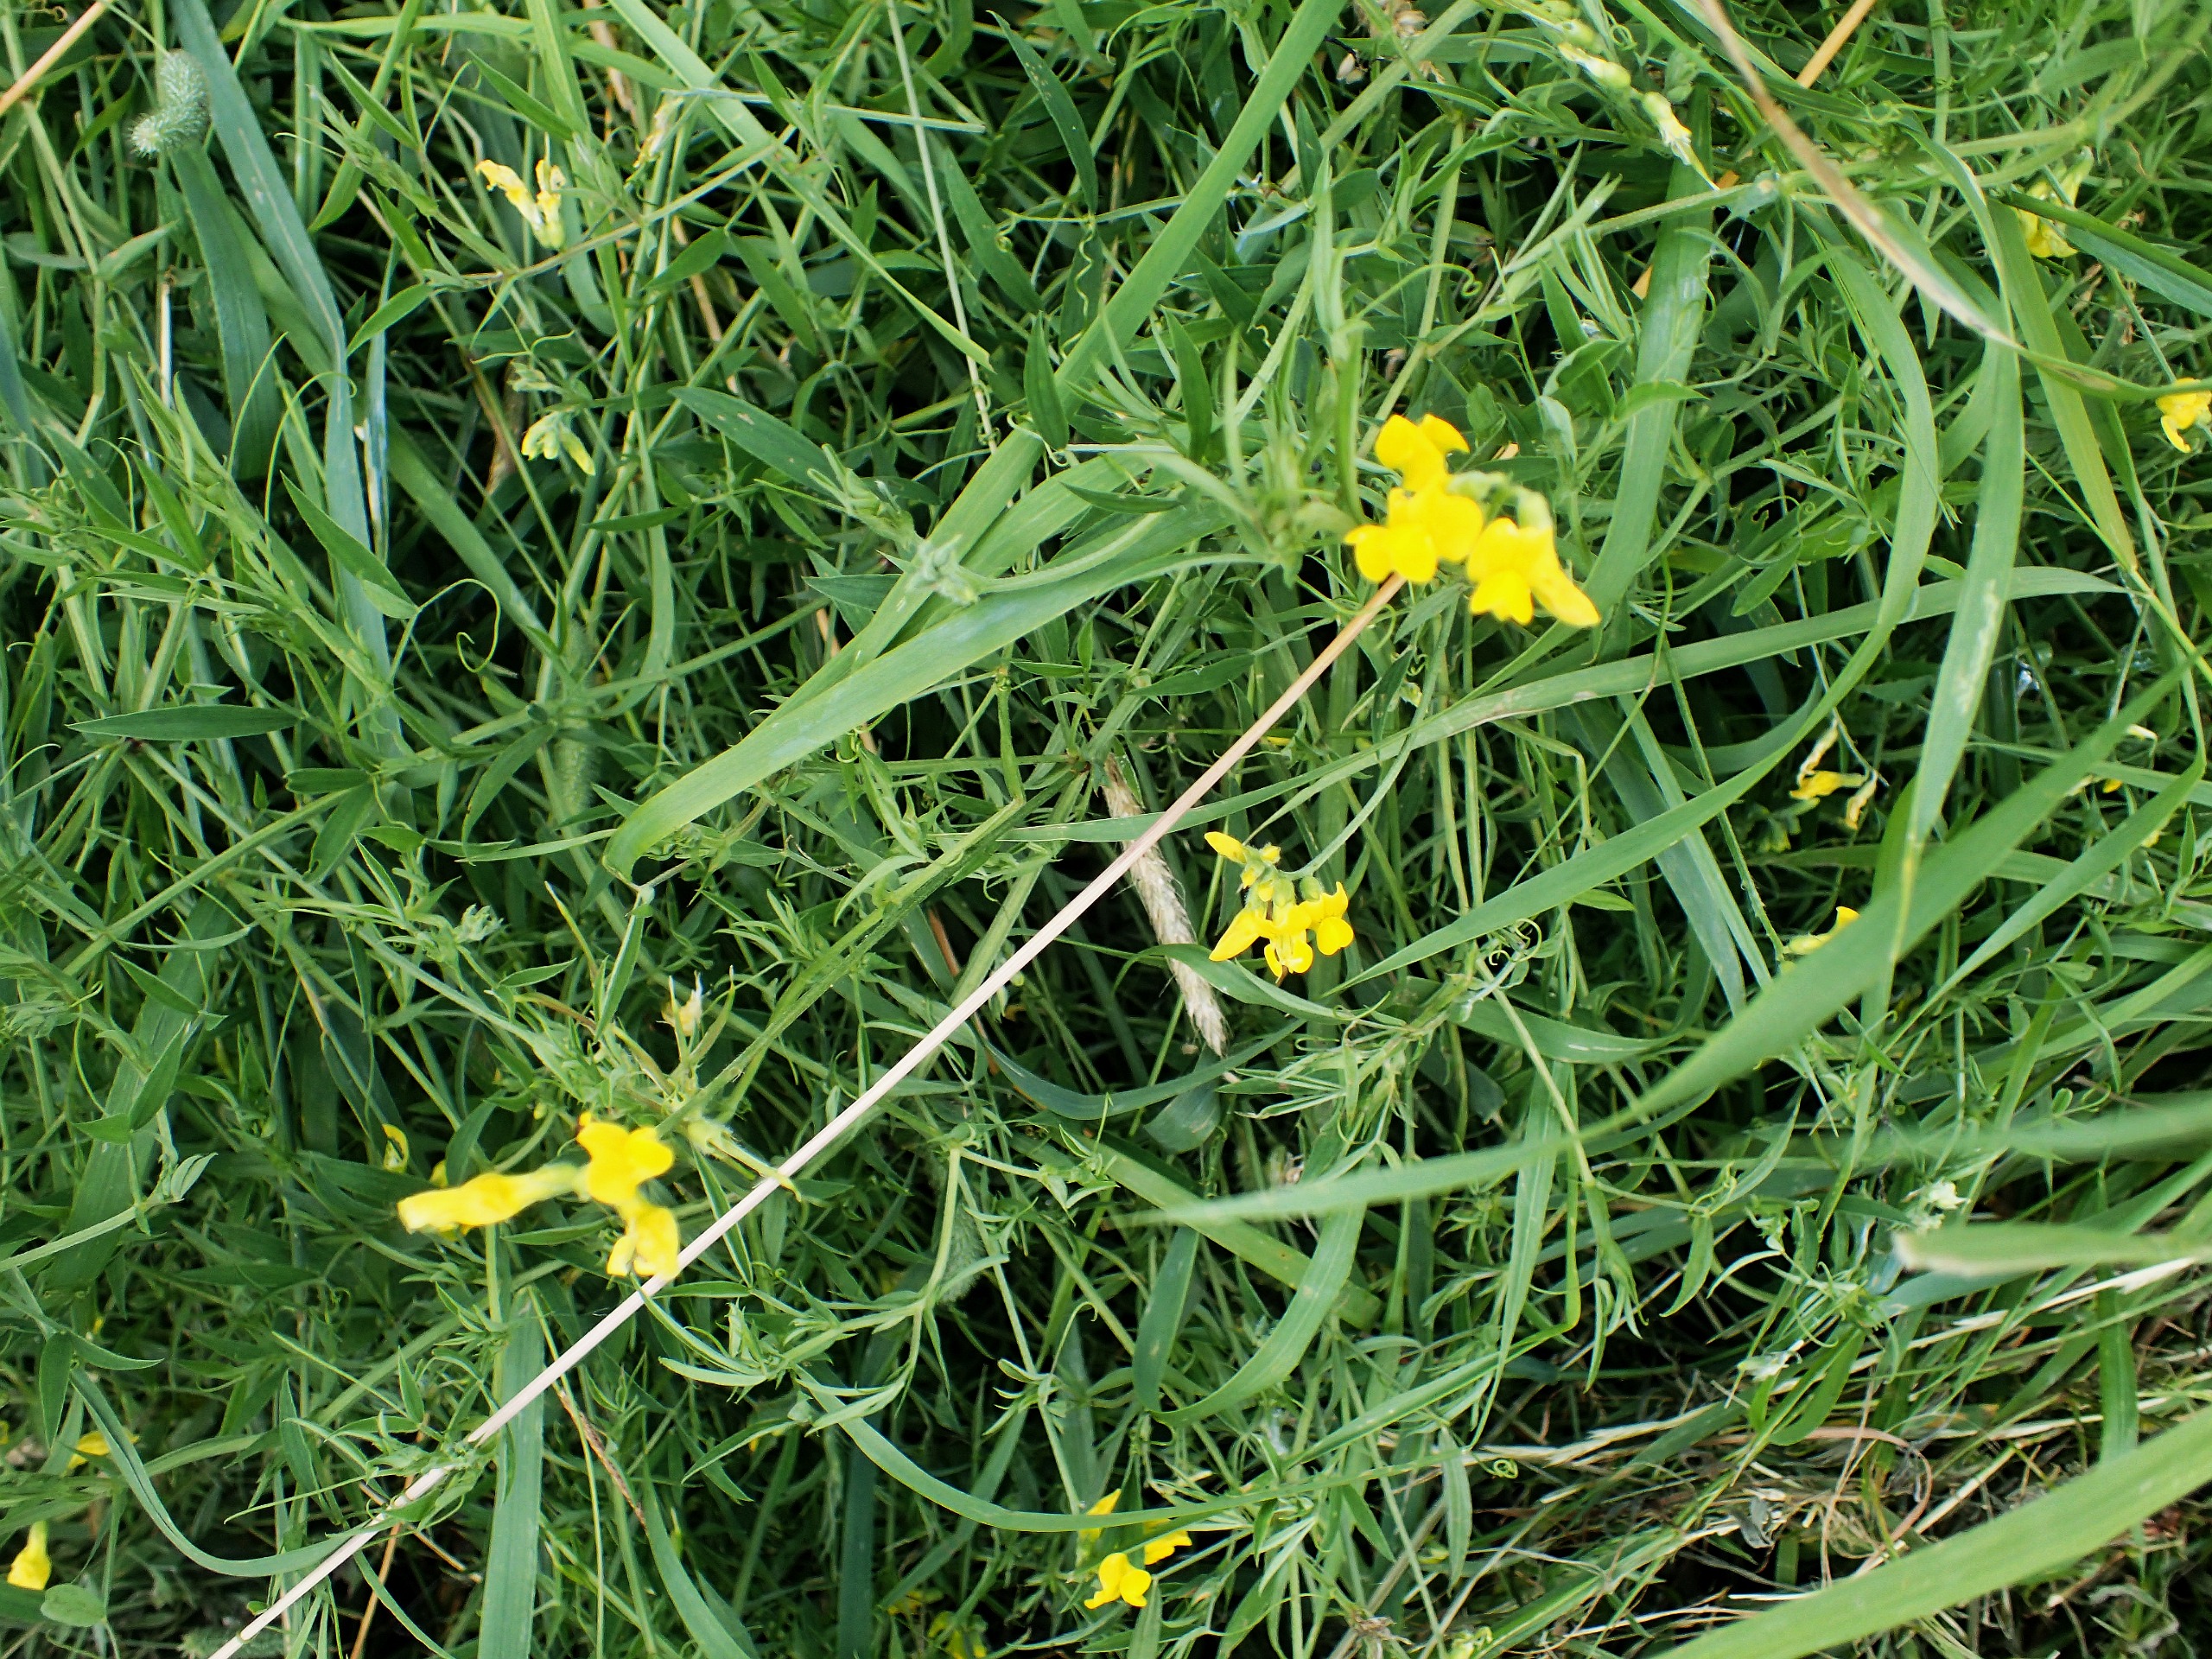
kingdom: Plantae
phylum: Tracheophyta
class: Magnoliopsida
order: Fabales
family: Fabaceae
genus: Lathyrus
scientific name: Lathyrus pratensis
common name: Gul fladbælg
